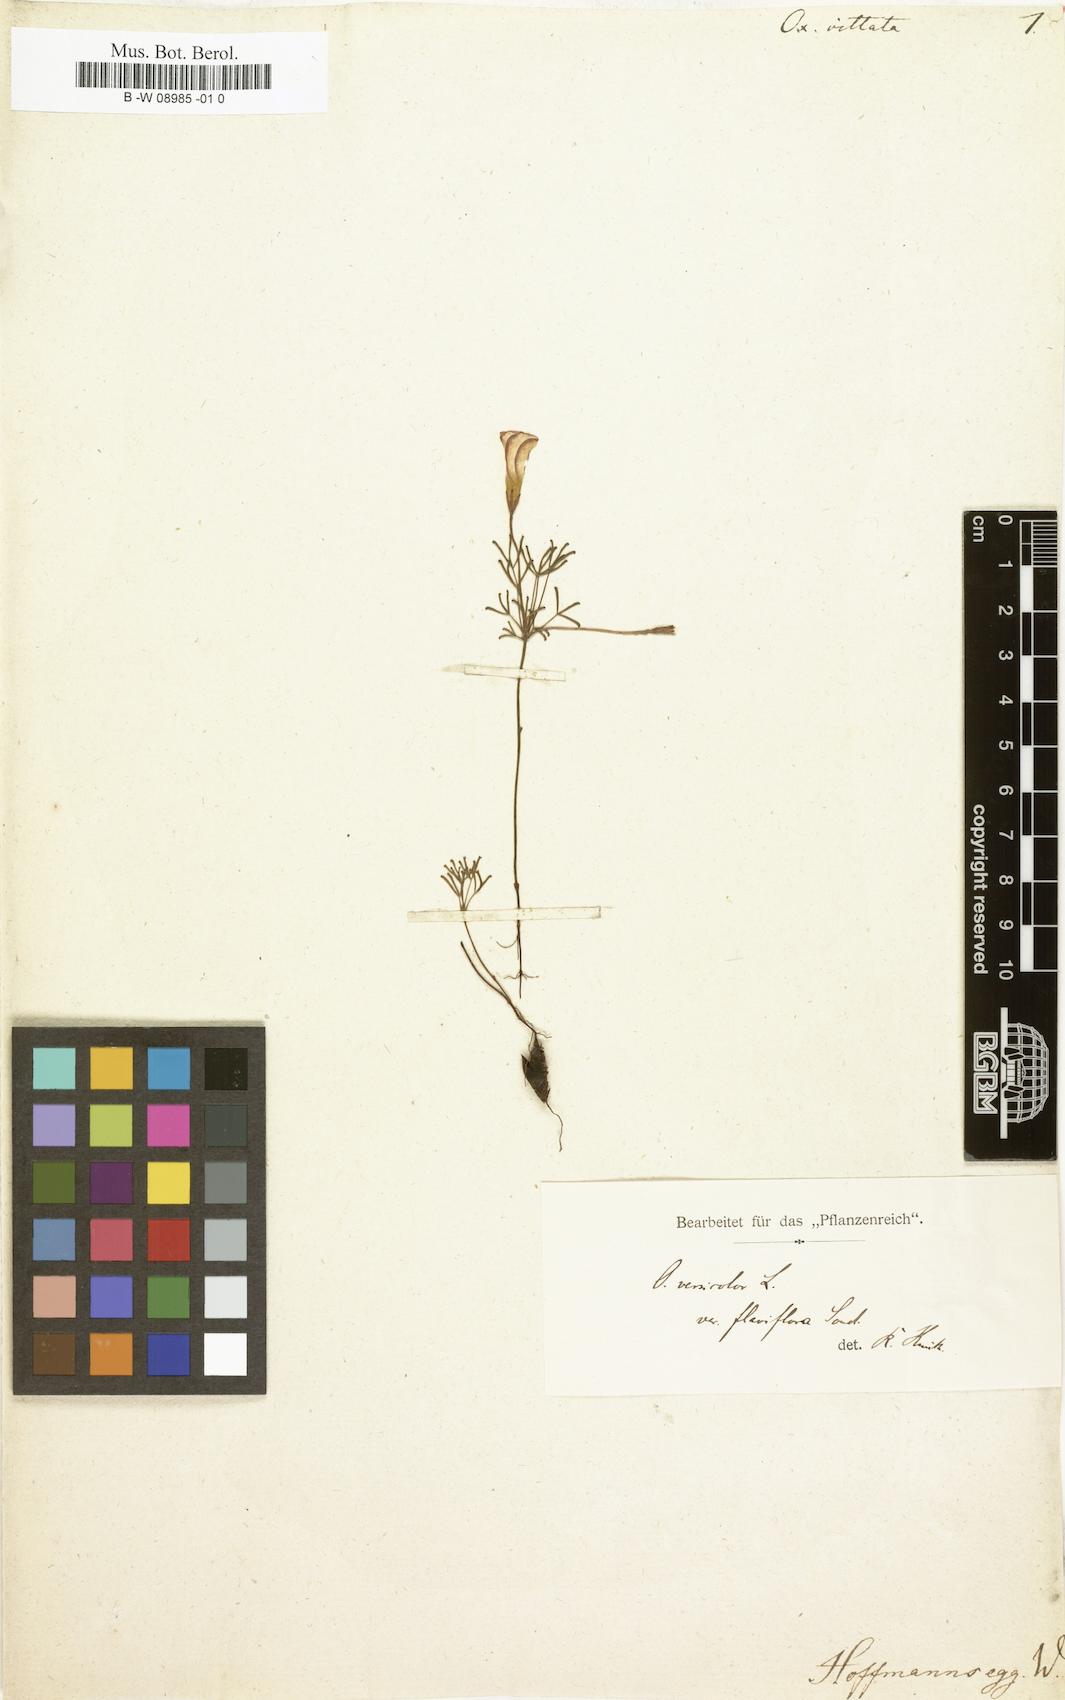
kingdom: Plantae
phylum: Tracheophyta
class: Magnoliopsida
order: Oxalidales
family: Oxalidaceae
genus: Oxalis
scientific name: Oxalis
